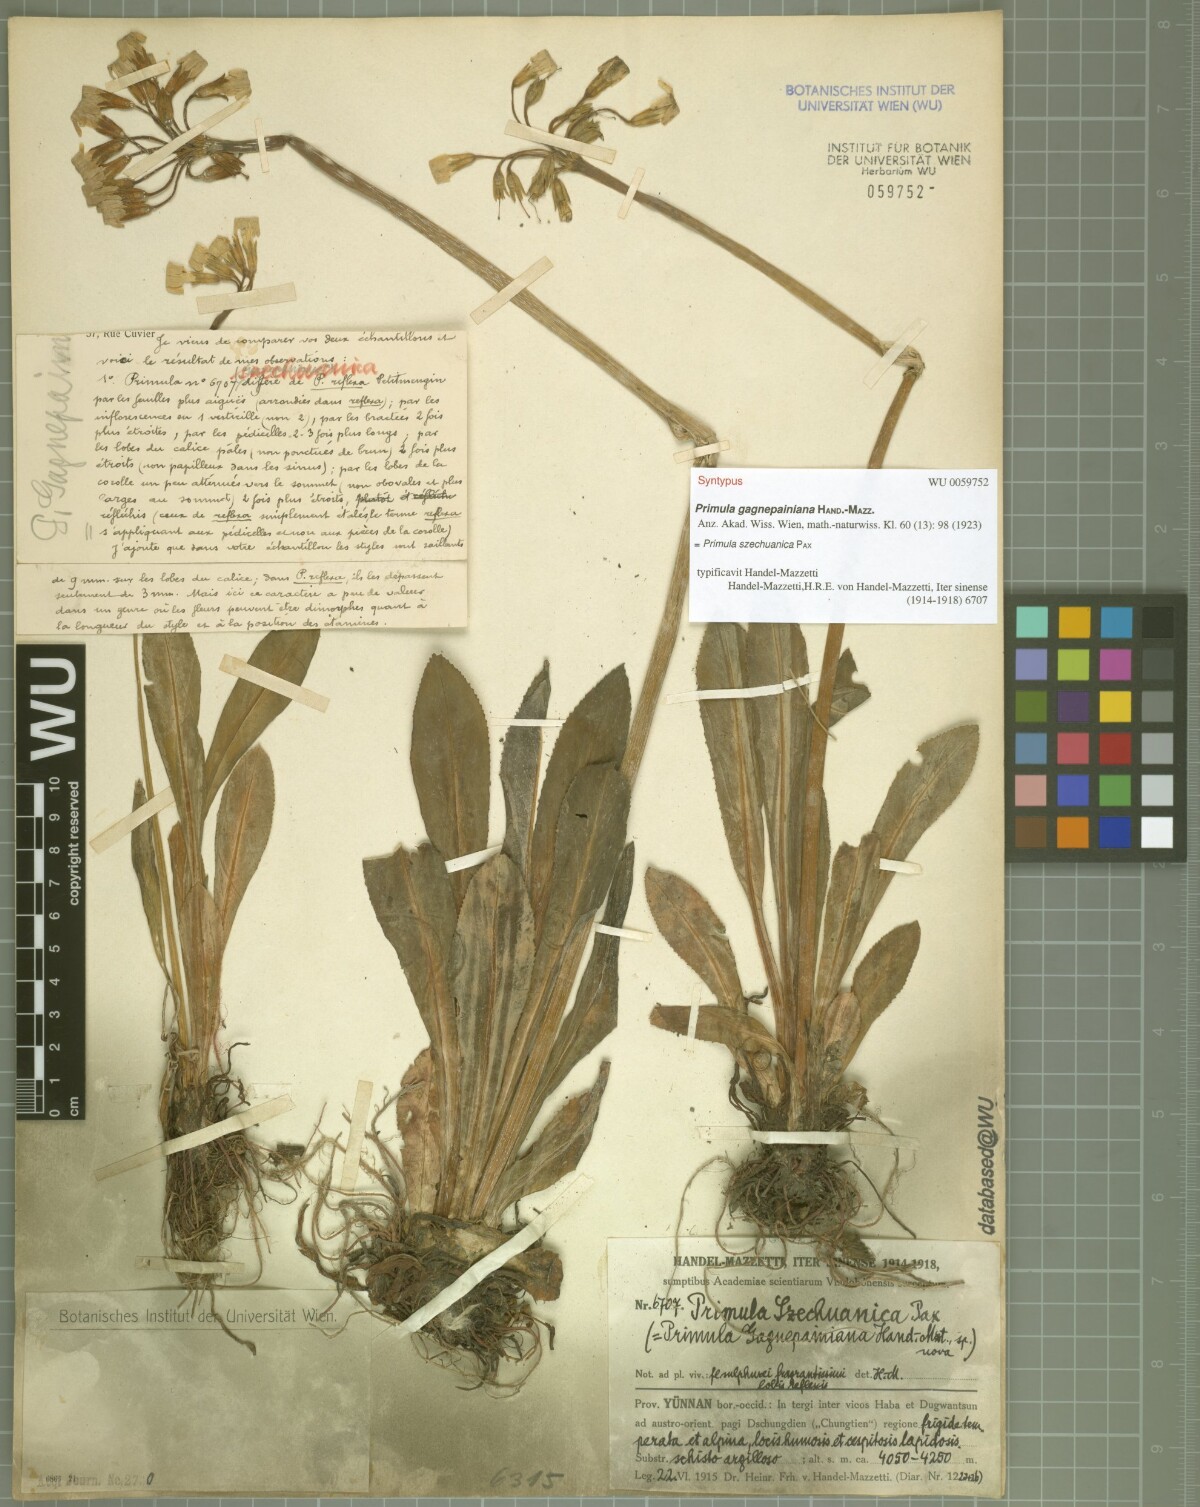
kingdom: Plantae
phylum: Tracheophyta
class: Magnoliopsida
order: Ericales
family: Primulaceae
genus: Primula
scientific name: Primula szechuanica
